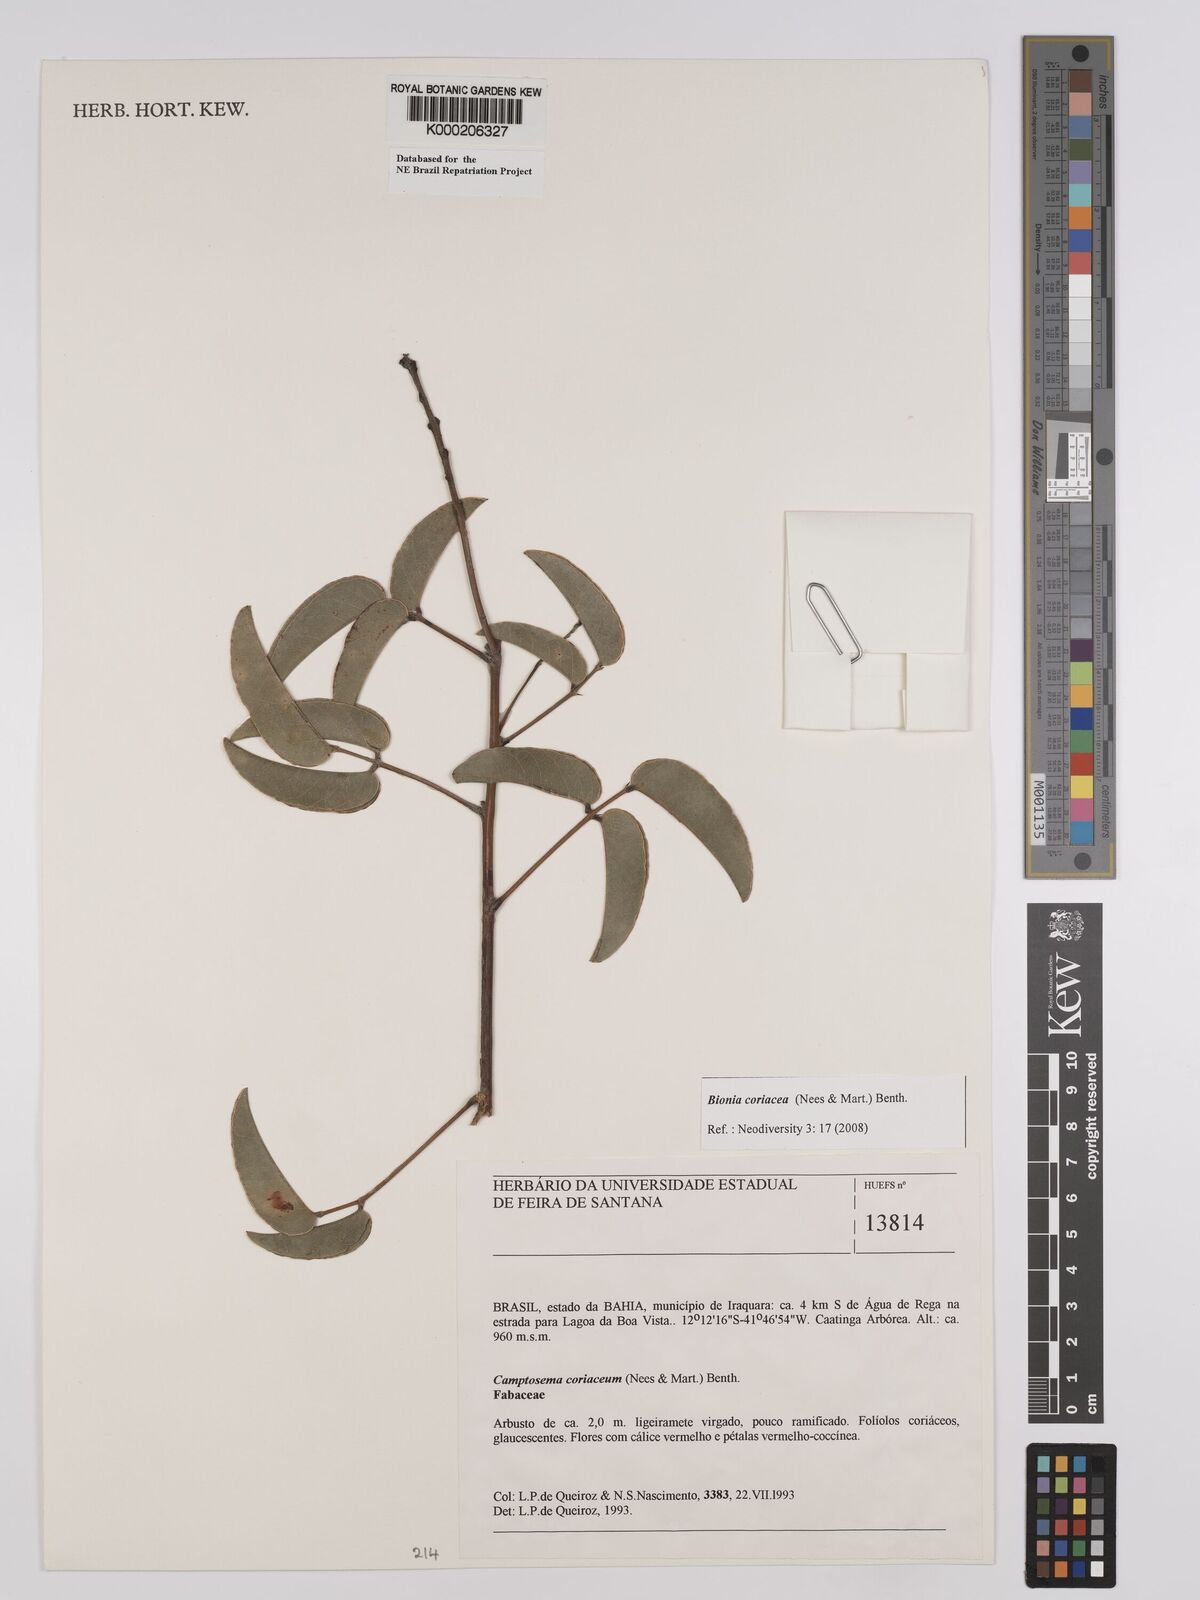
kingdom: Plantae
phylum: Tracheophyta
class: Magnoliopsida
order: Fabales
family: Fabaceae
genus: Camptosema
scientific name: Camptosema coriaceum
